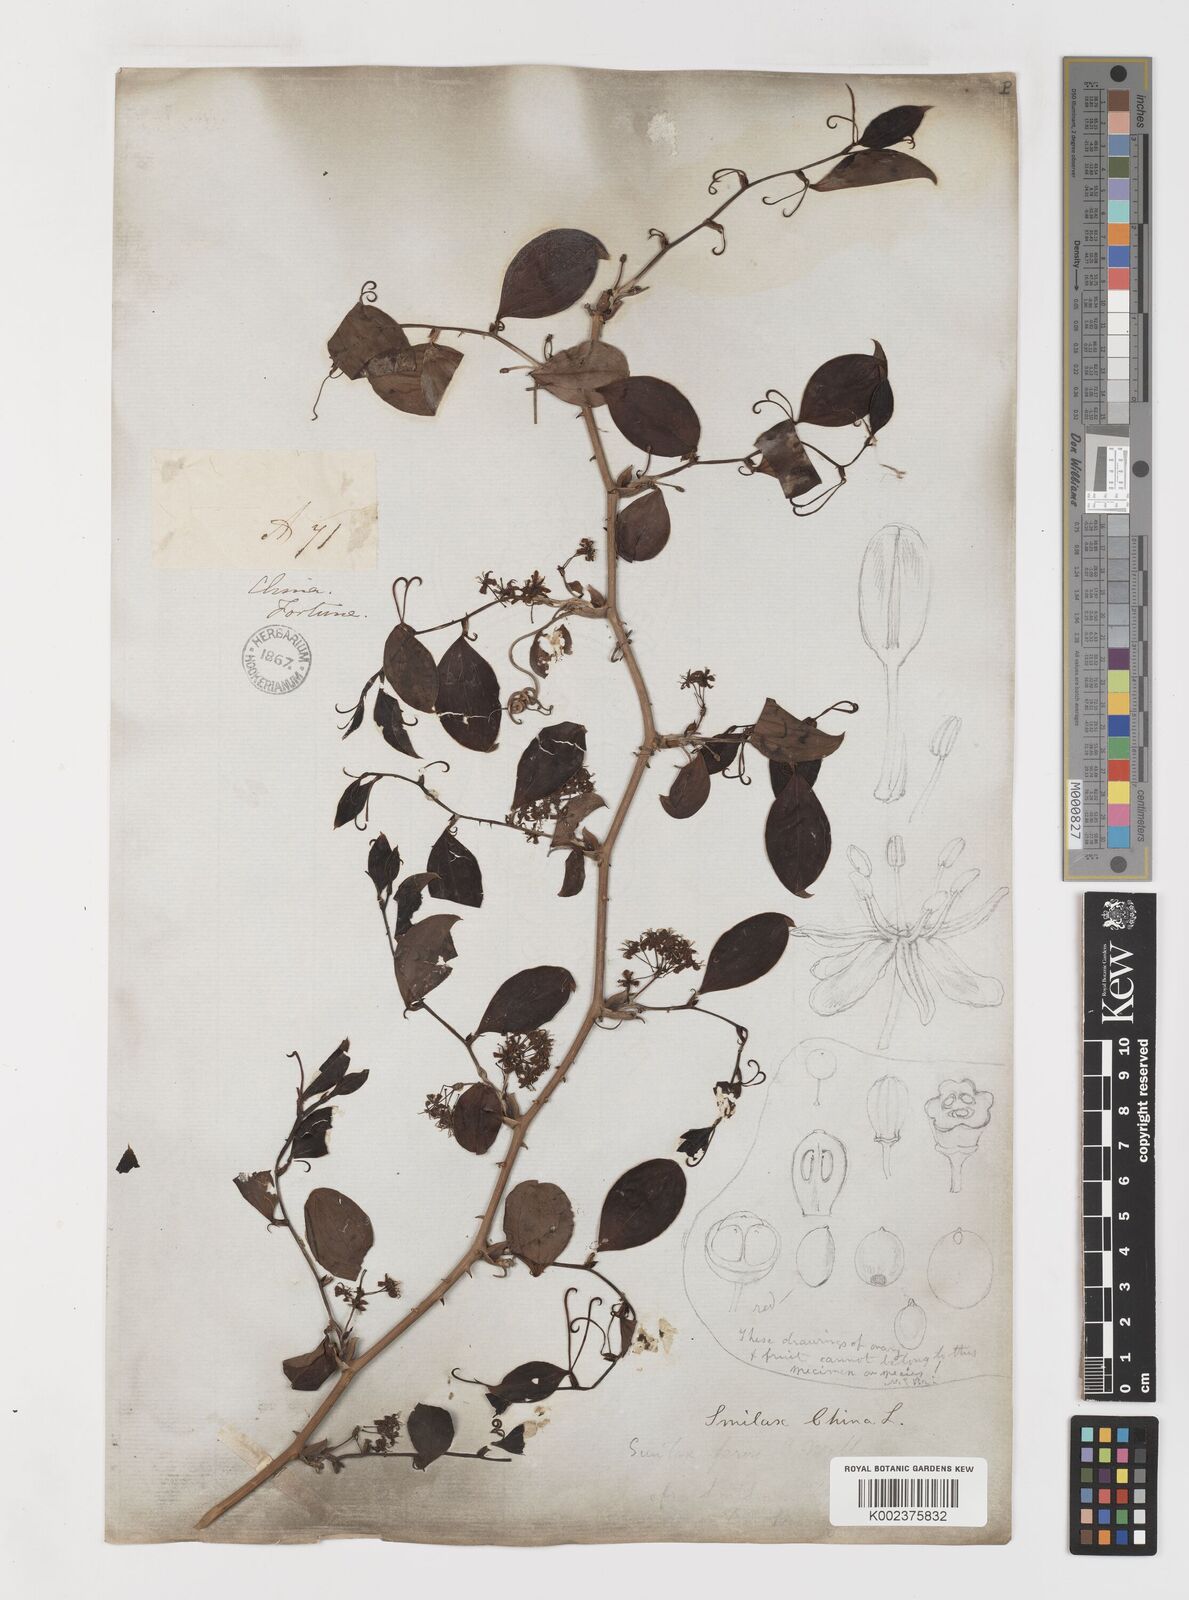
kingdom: Plantae
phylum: Tracheophyta
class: Liliopsida
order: Liliales
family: Smilacaceae
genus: Smilax
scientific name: Smilax china
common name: Chinaroot
